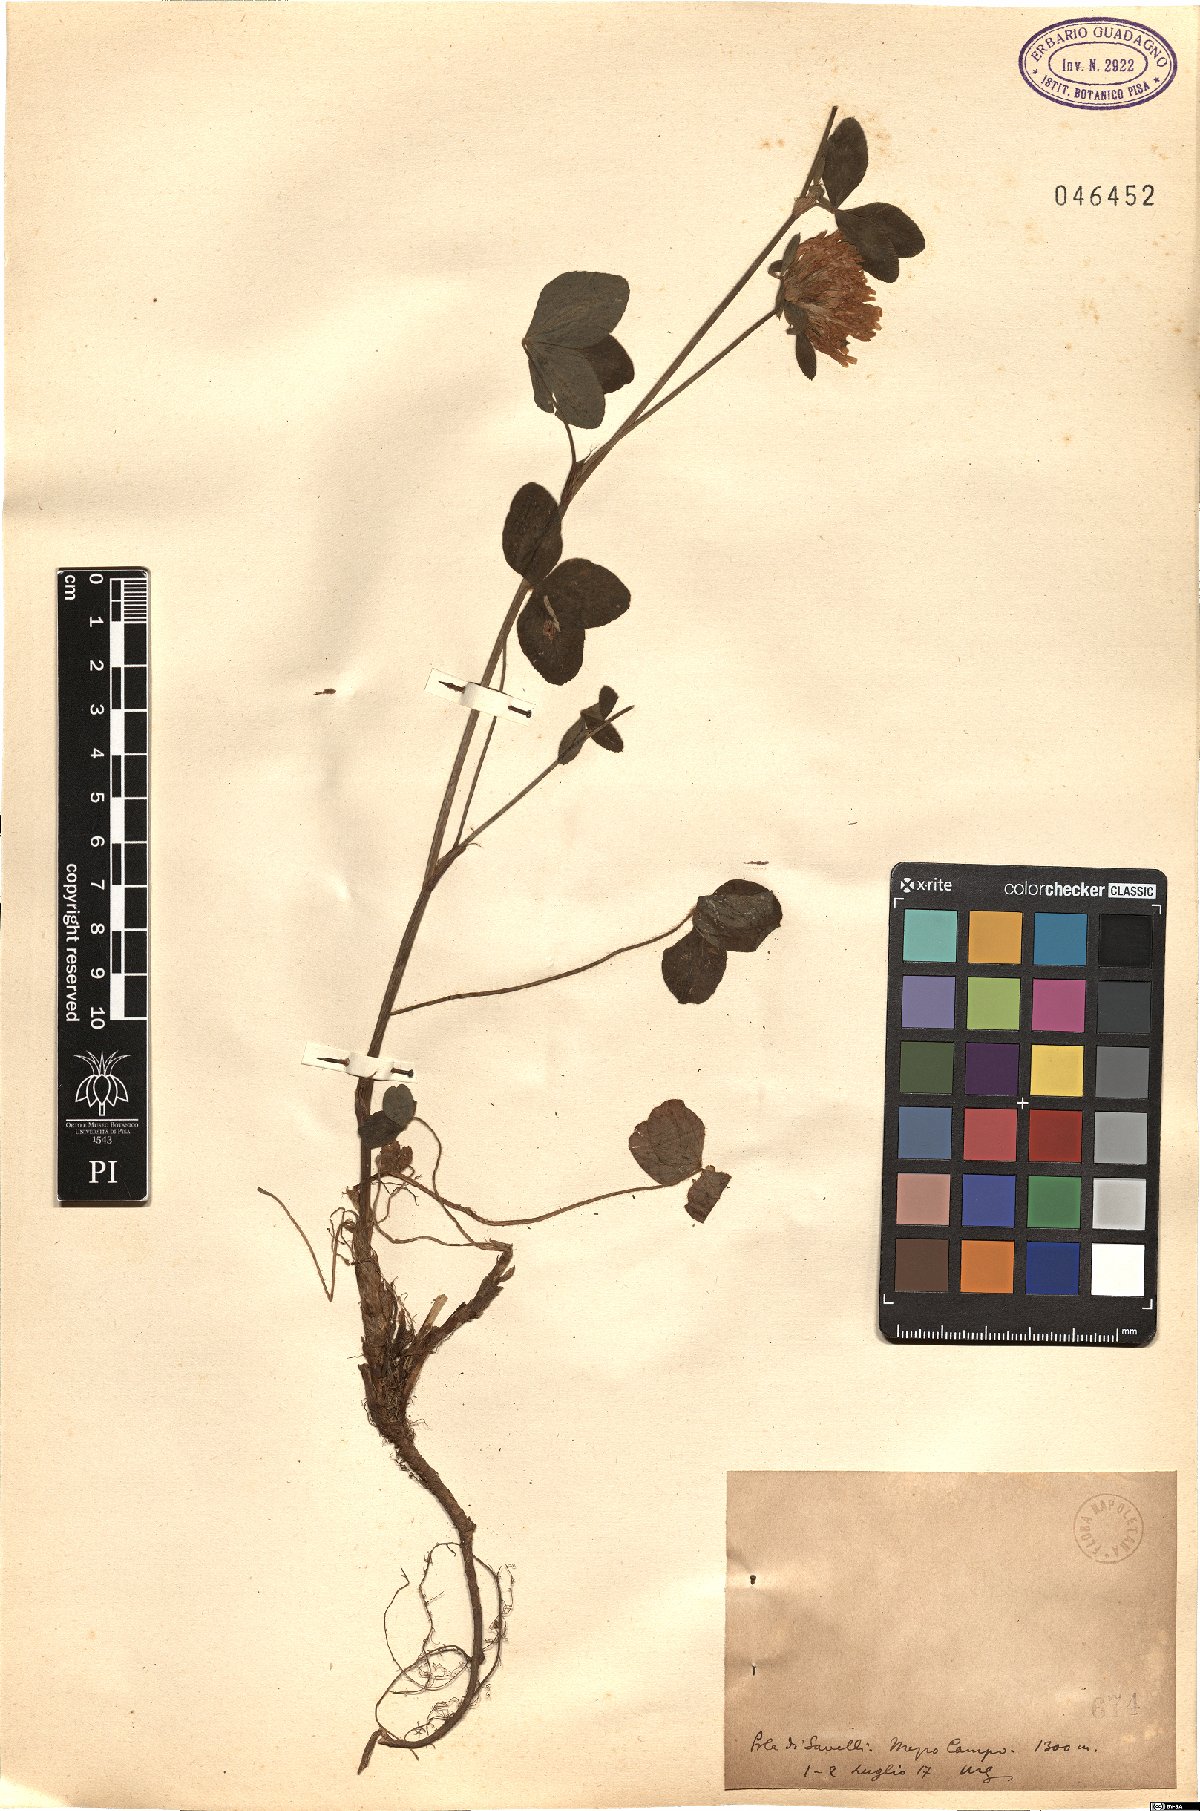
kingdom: Plantae
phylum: Tracheophyta
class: Magnoliopsida
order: Fabales
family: Fabaceae
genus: Trifolium
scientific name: Trifolium
